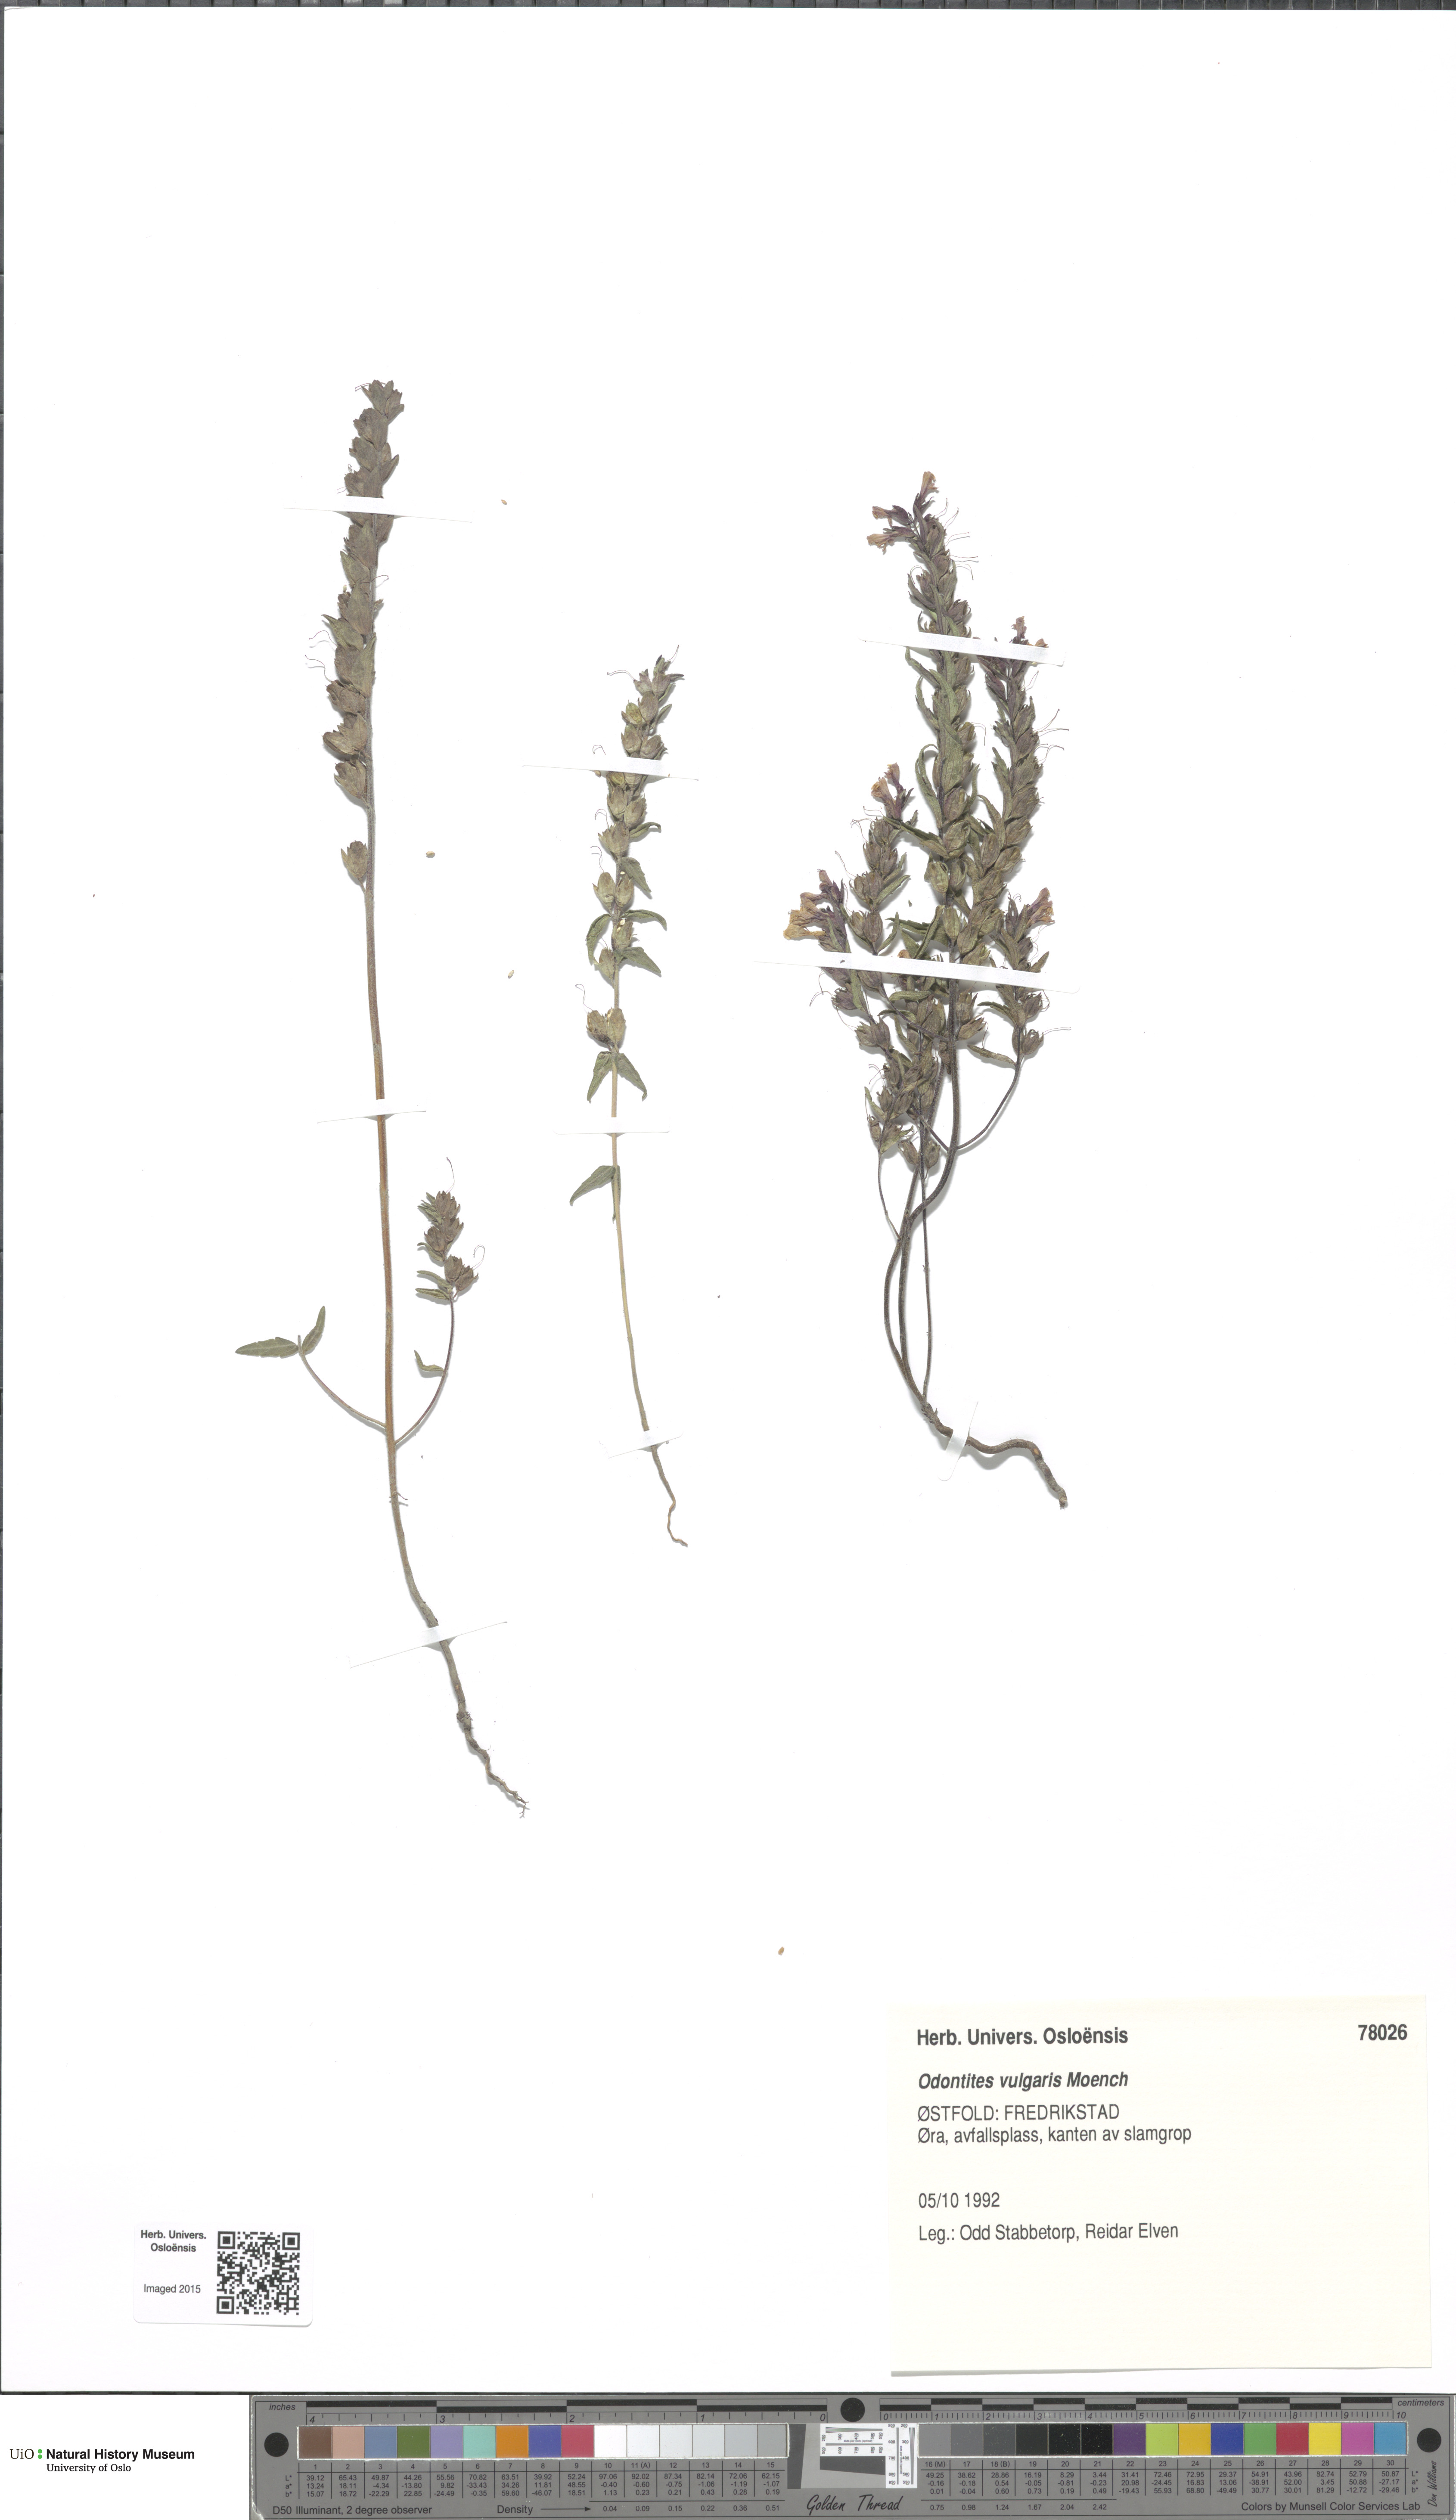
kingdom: Plantae
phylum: Tracheophyta
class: Magnoliopsida
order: Lamiales
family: Orobanchaceae
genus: Odontites
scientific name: Odontites vulgaris
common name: Broomrape
